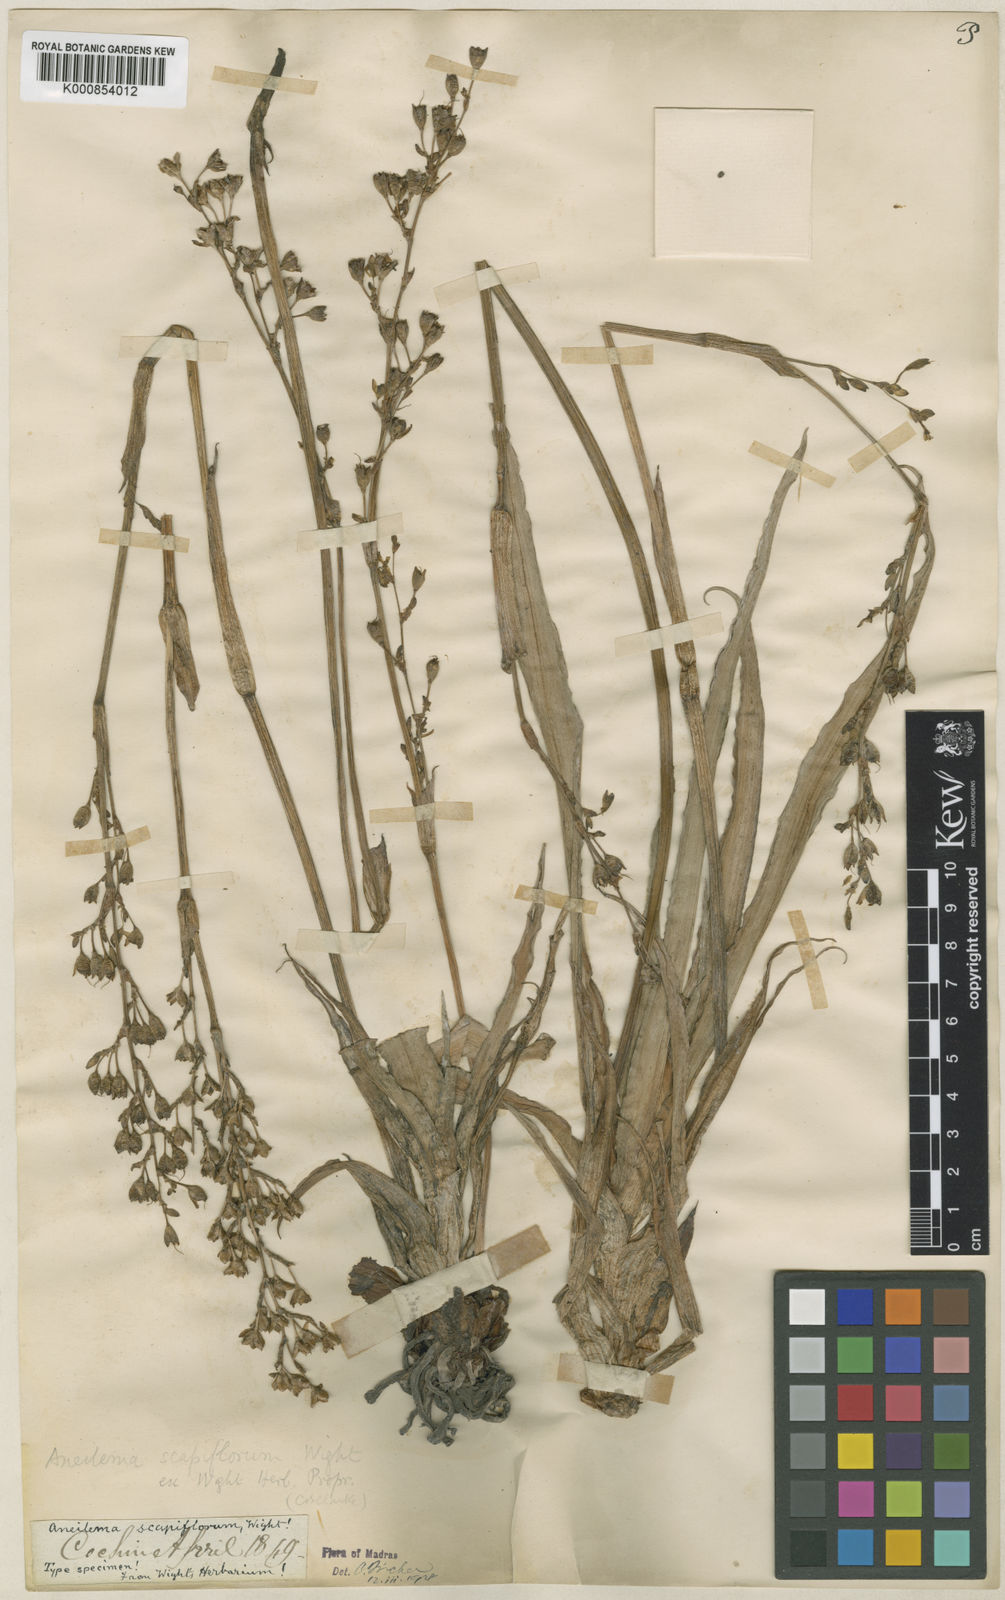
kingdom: Plantae
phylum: Tracheophyta
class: Liliopsida
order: Commelinales
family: Commelinaceae
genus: Murdannia
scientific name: Murdannia edulis
